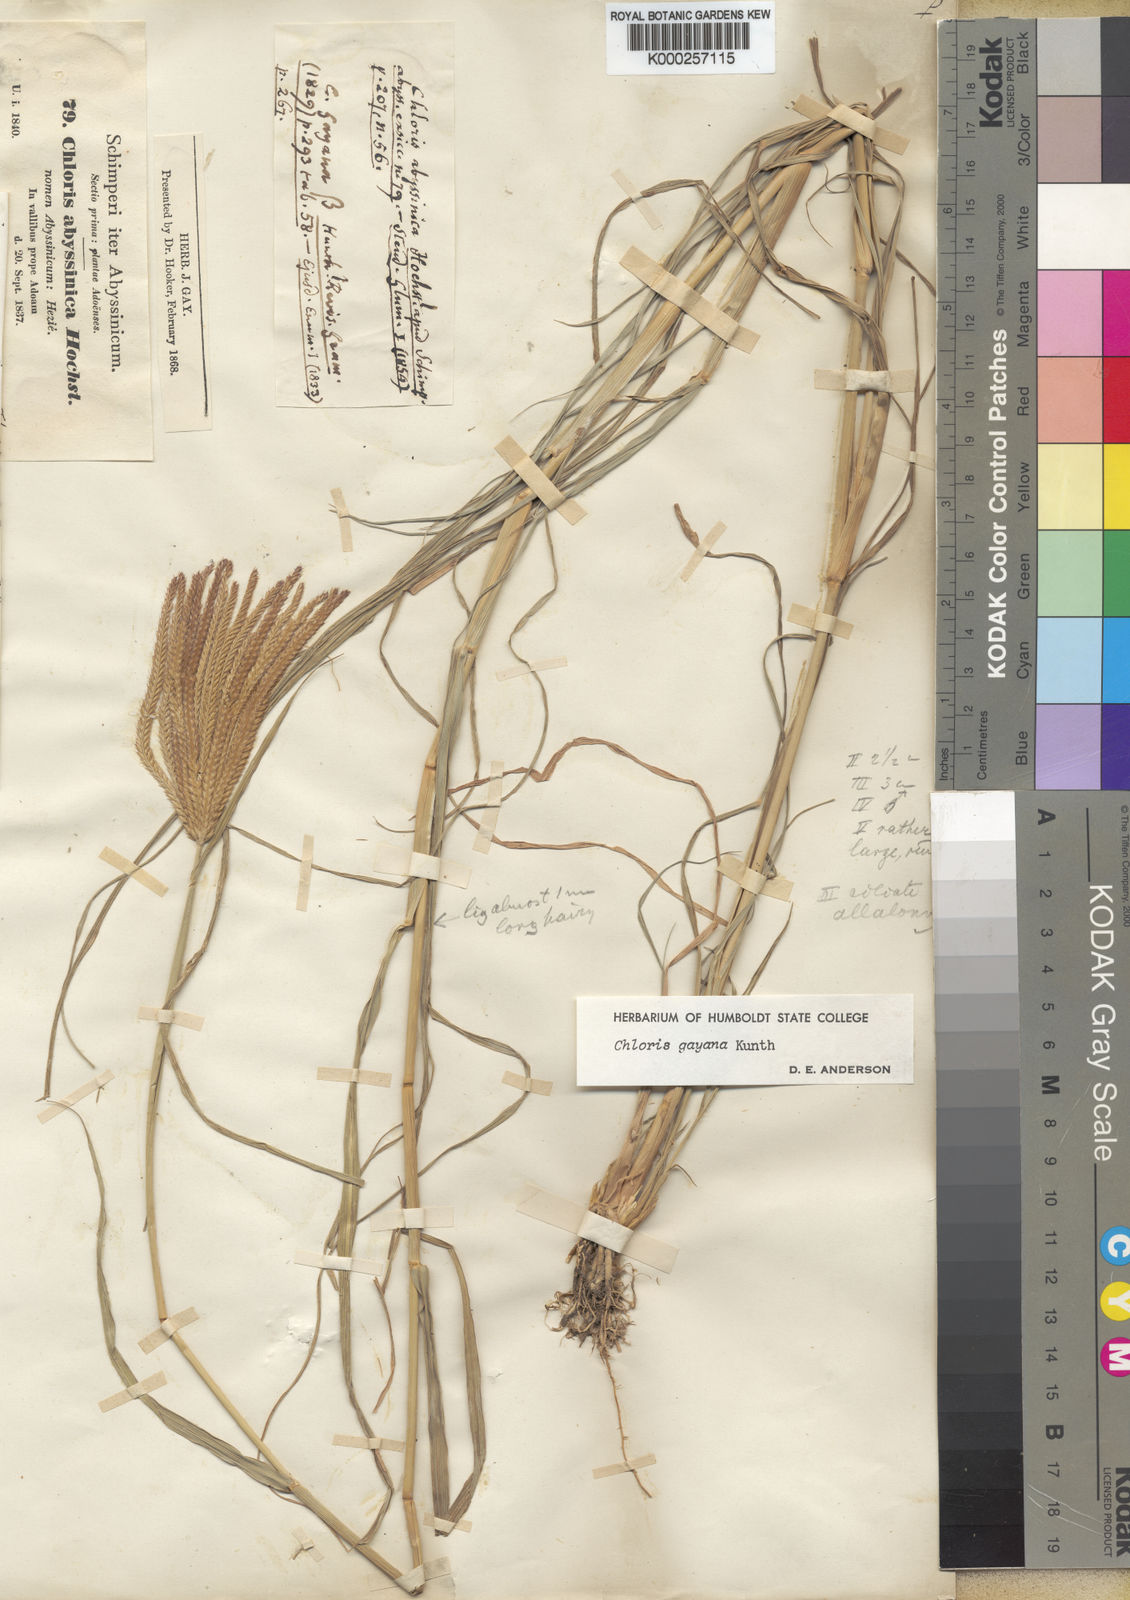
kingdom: Plantae
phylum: Tracheophyta
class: Liliopsida
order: Poales
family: Poaceae
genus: Chloris
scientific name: Chloris gayana
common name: Rhodes grass
